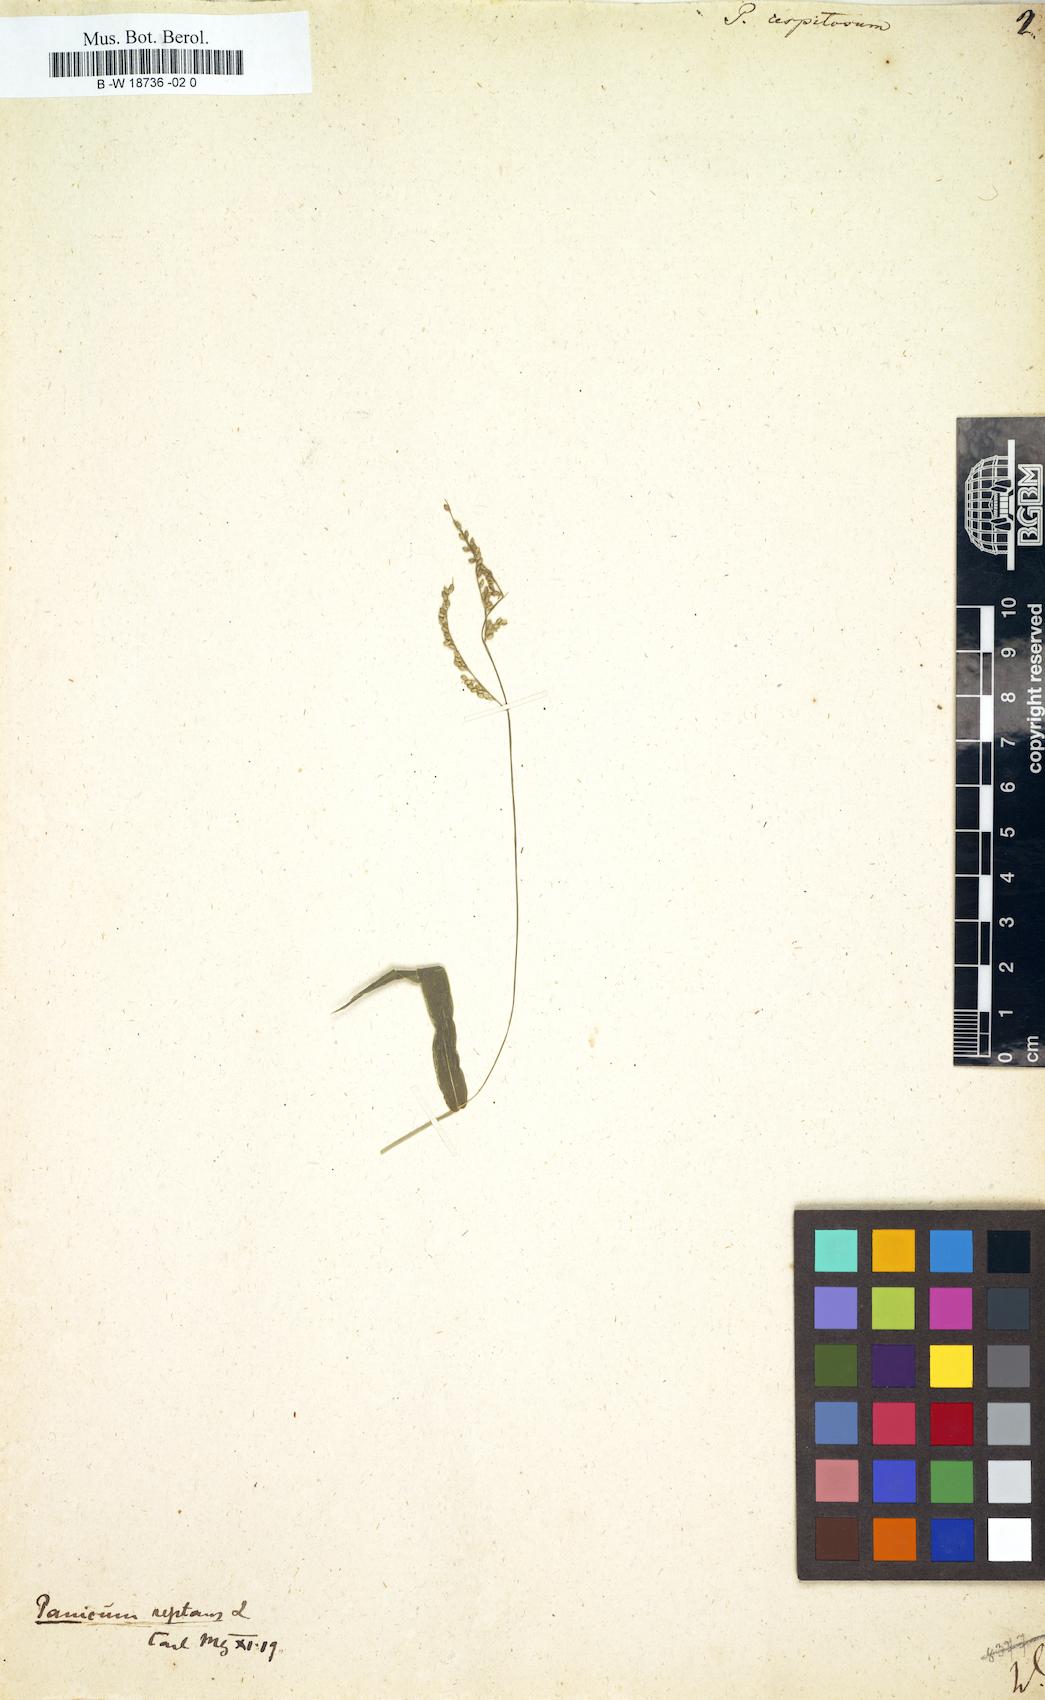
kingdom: Plantae
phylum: Tracheophyta
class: Liliopsida
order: Poales
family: Poaceae
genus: Urochloa
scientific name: Urochloa reptans
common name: Sprawling signalgrass
